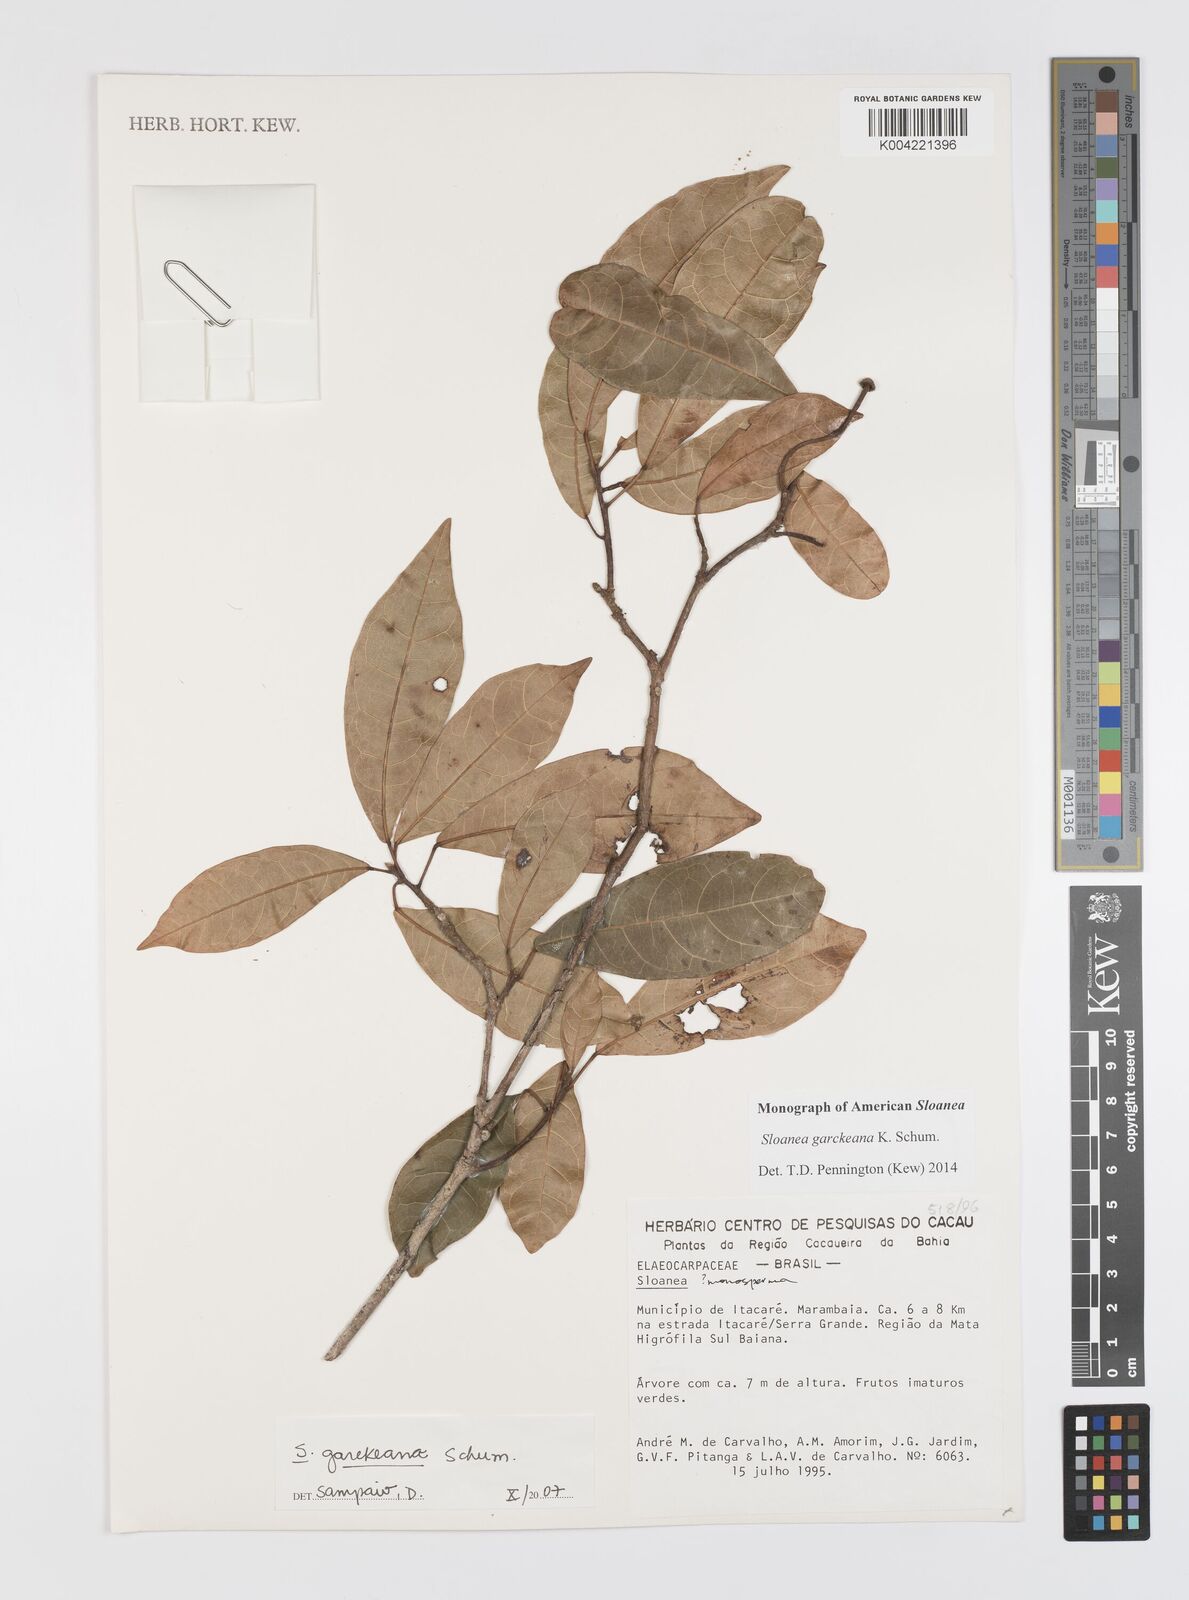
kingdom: Plantae
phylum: Tracheophyta
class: Magnoliopsida
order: Oxalidales
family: Elaeocarpaceae
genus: Sloanea
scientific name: Sloanea garckeana
